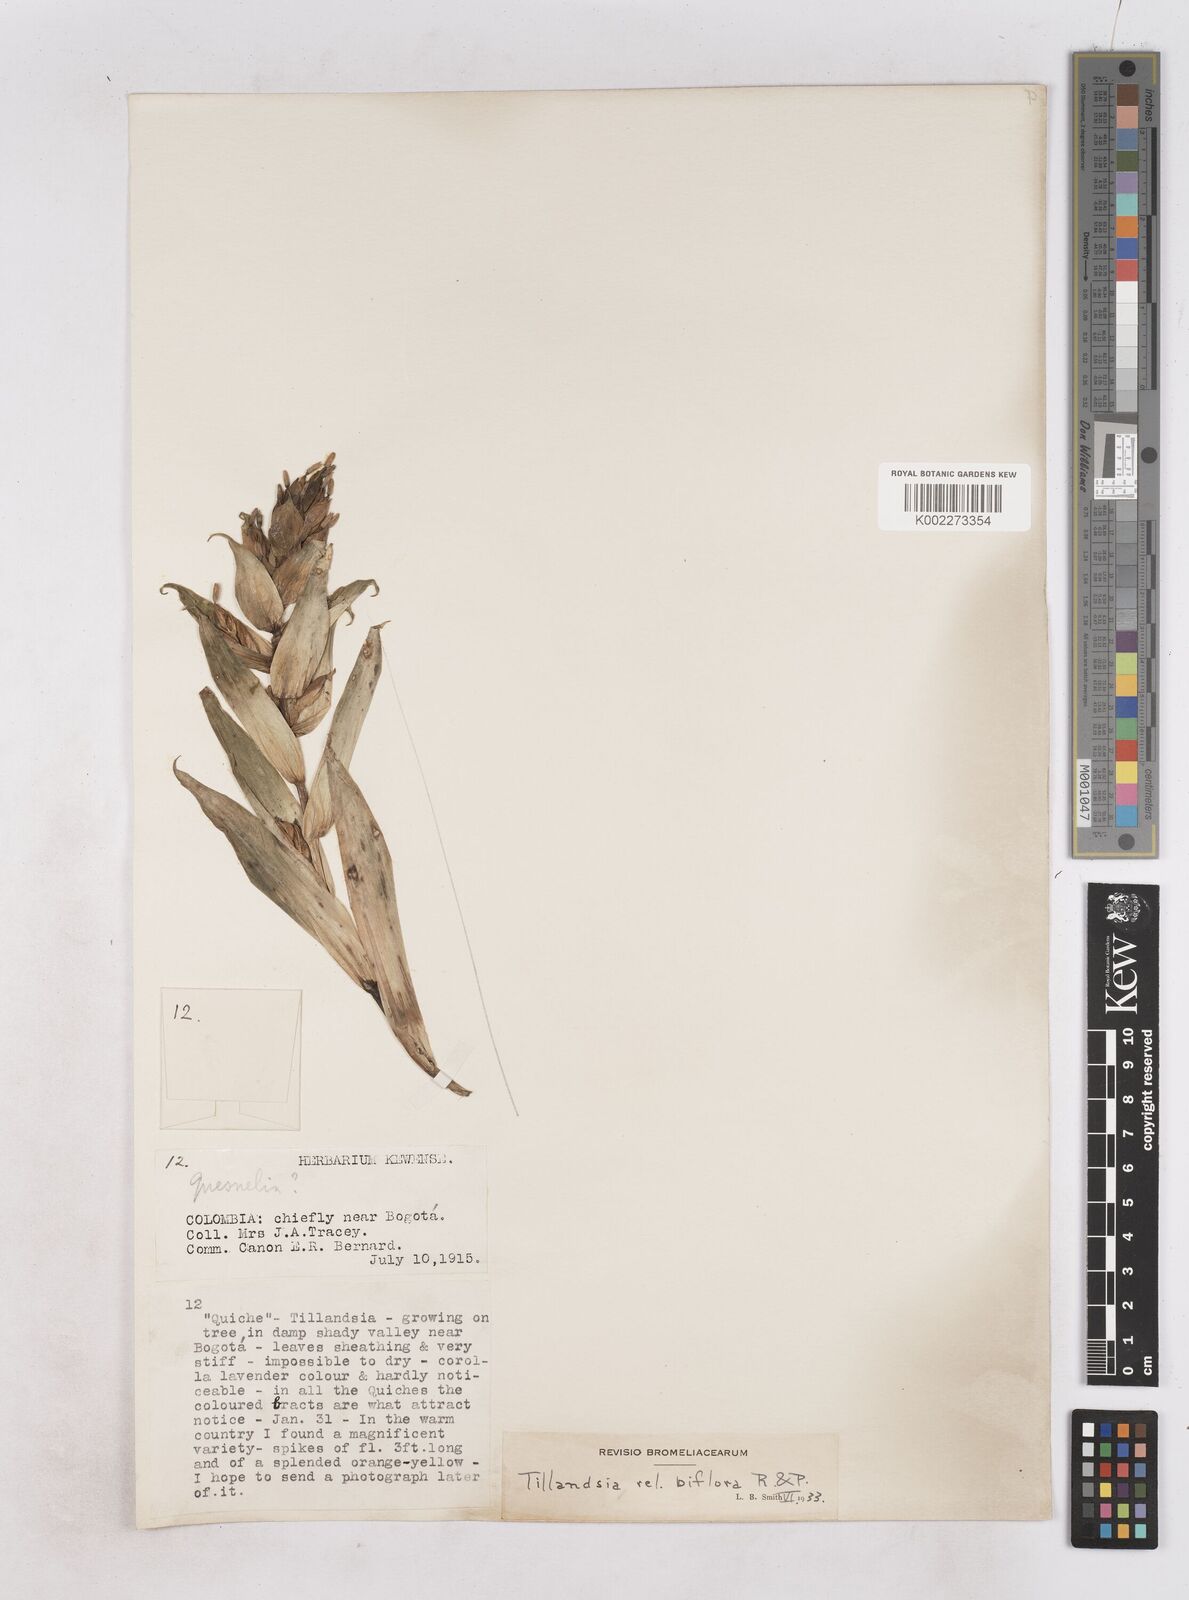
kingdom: Plantae
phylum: Tracheophyta
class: Liliopsida
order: Poales
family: Bromeliaceae
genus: Tillandsia
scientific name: Tillandsia biflora
